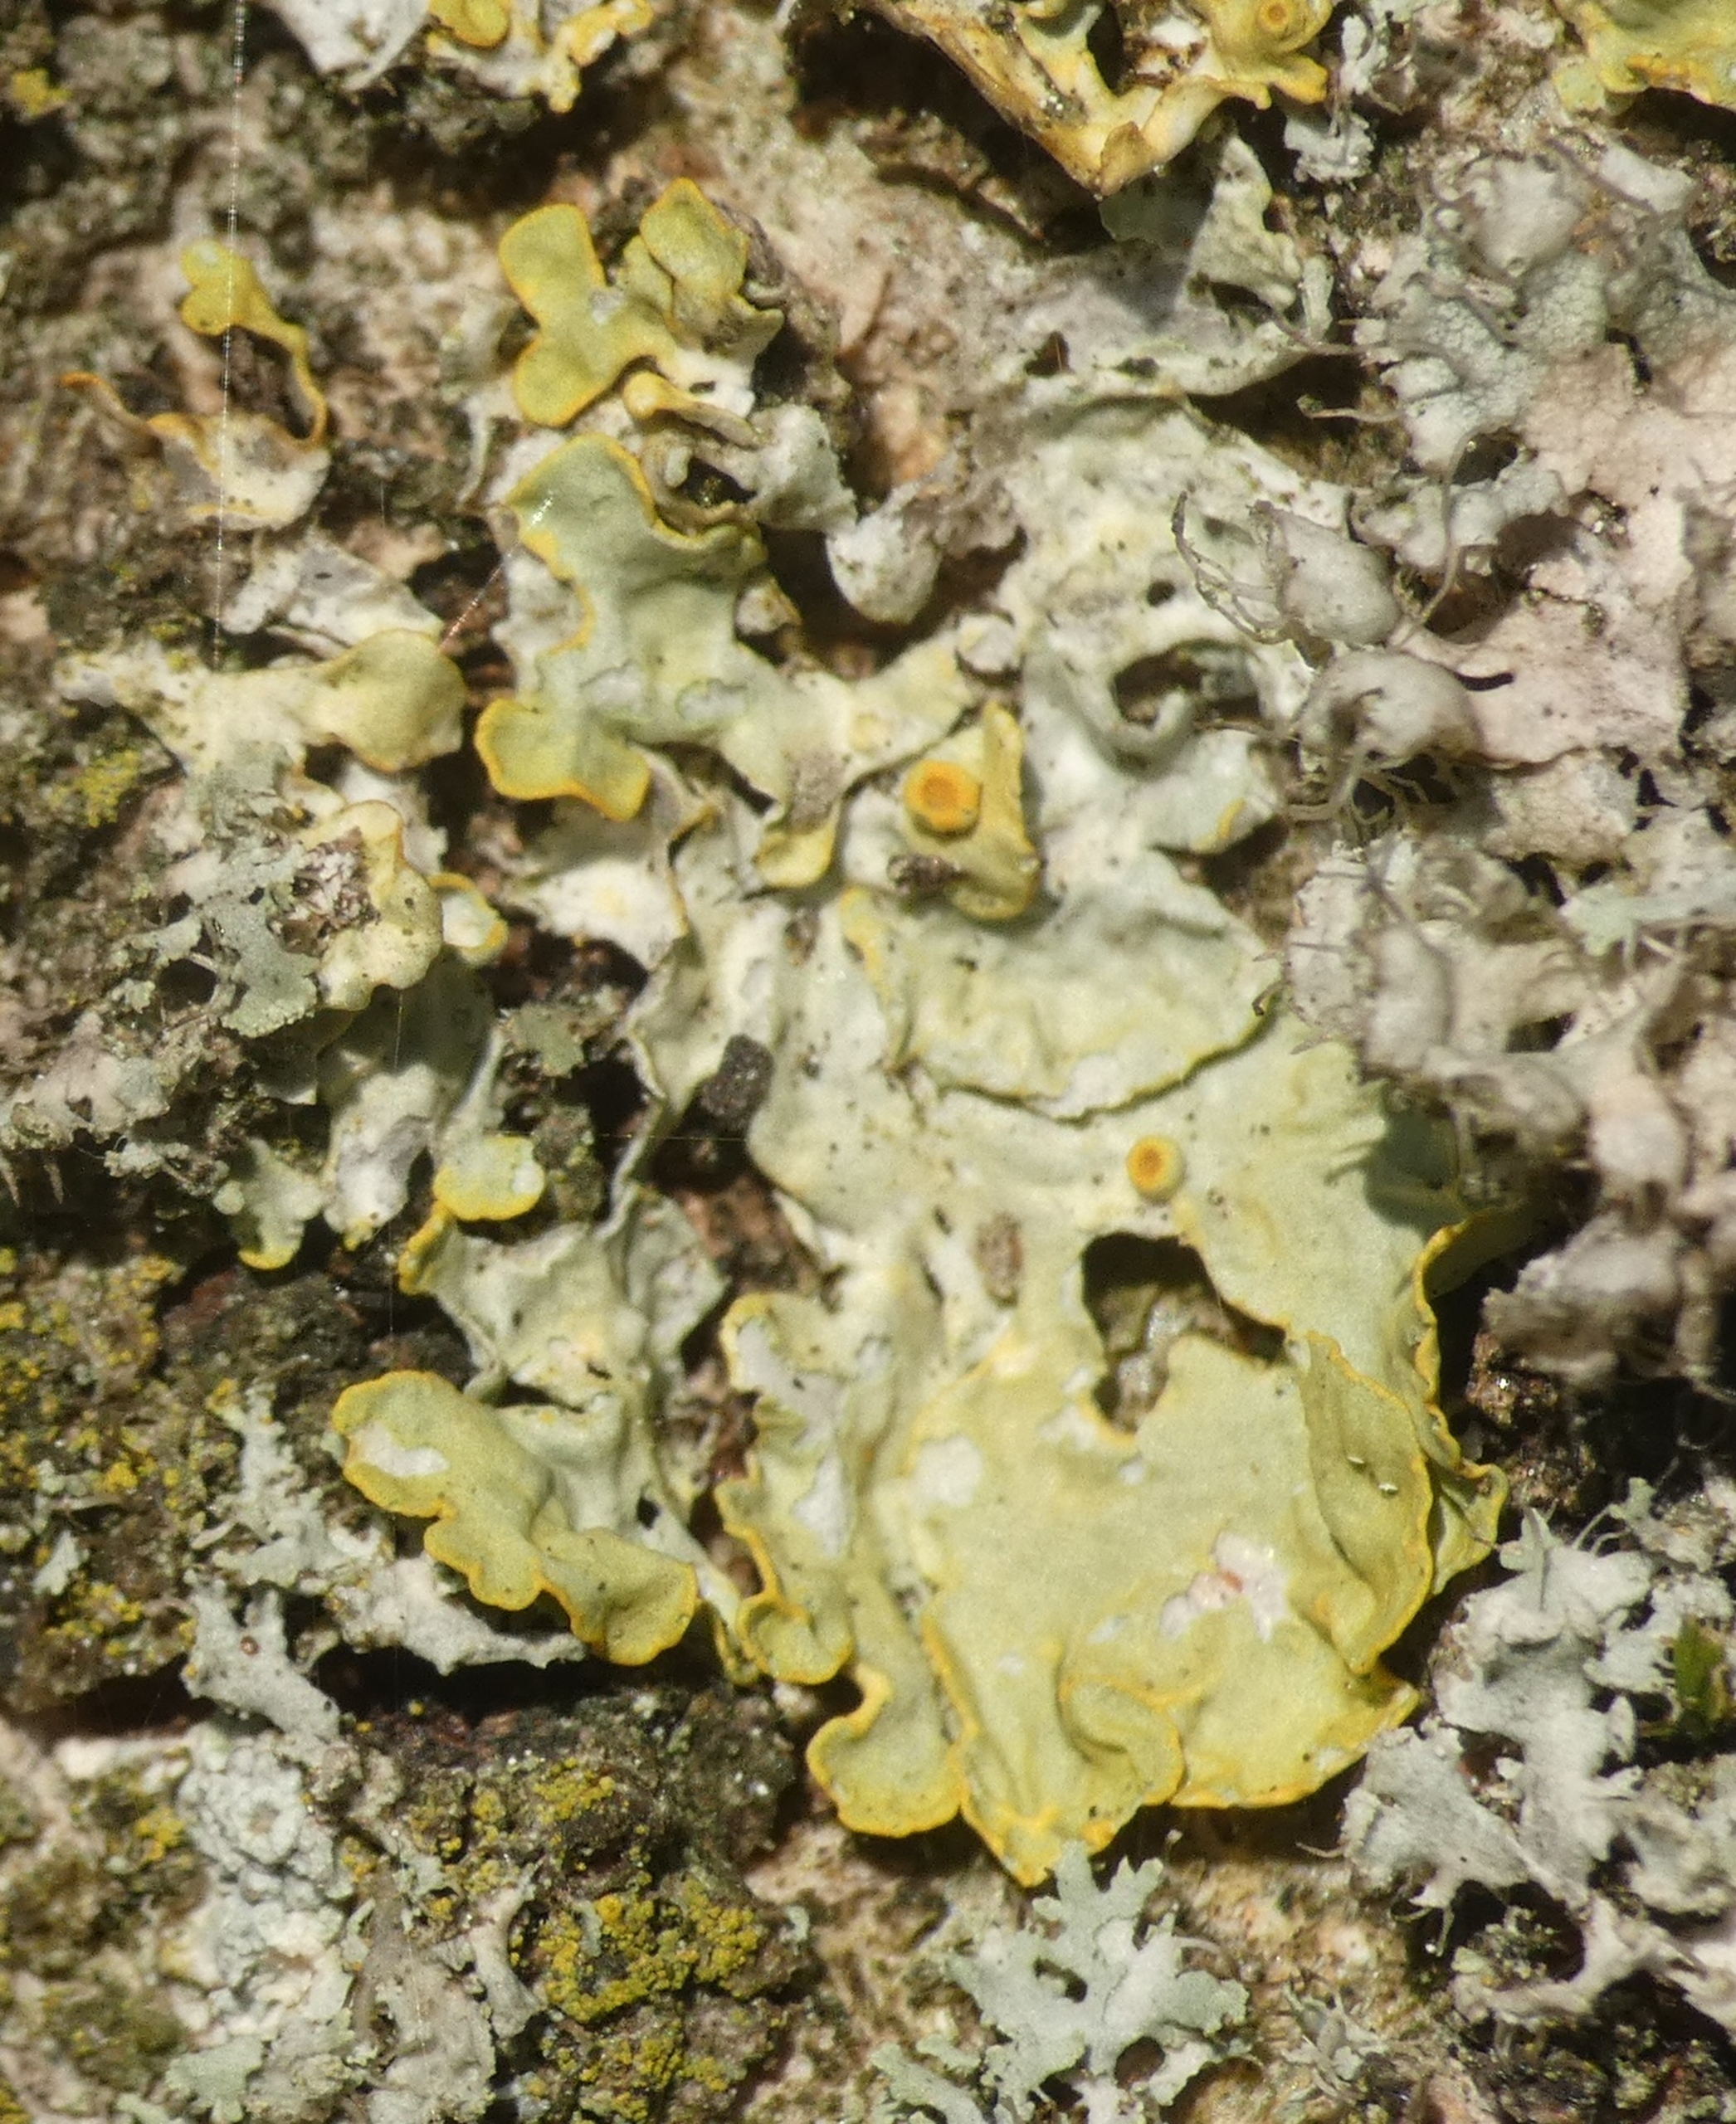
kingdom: Fungi
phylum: Ascomycota
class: Lecanoromycetes
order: Teloschistales
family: Teloschistaceae
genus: Xanthoria
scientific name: Xanthoria parietina
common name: Almindelig væggelav
